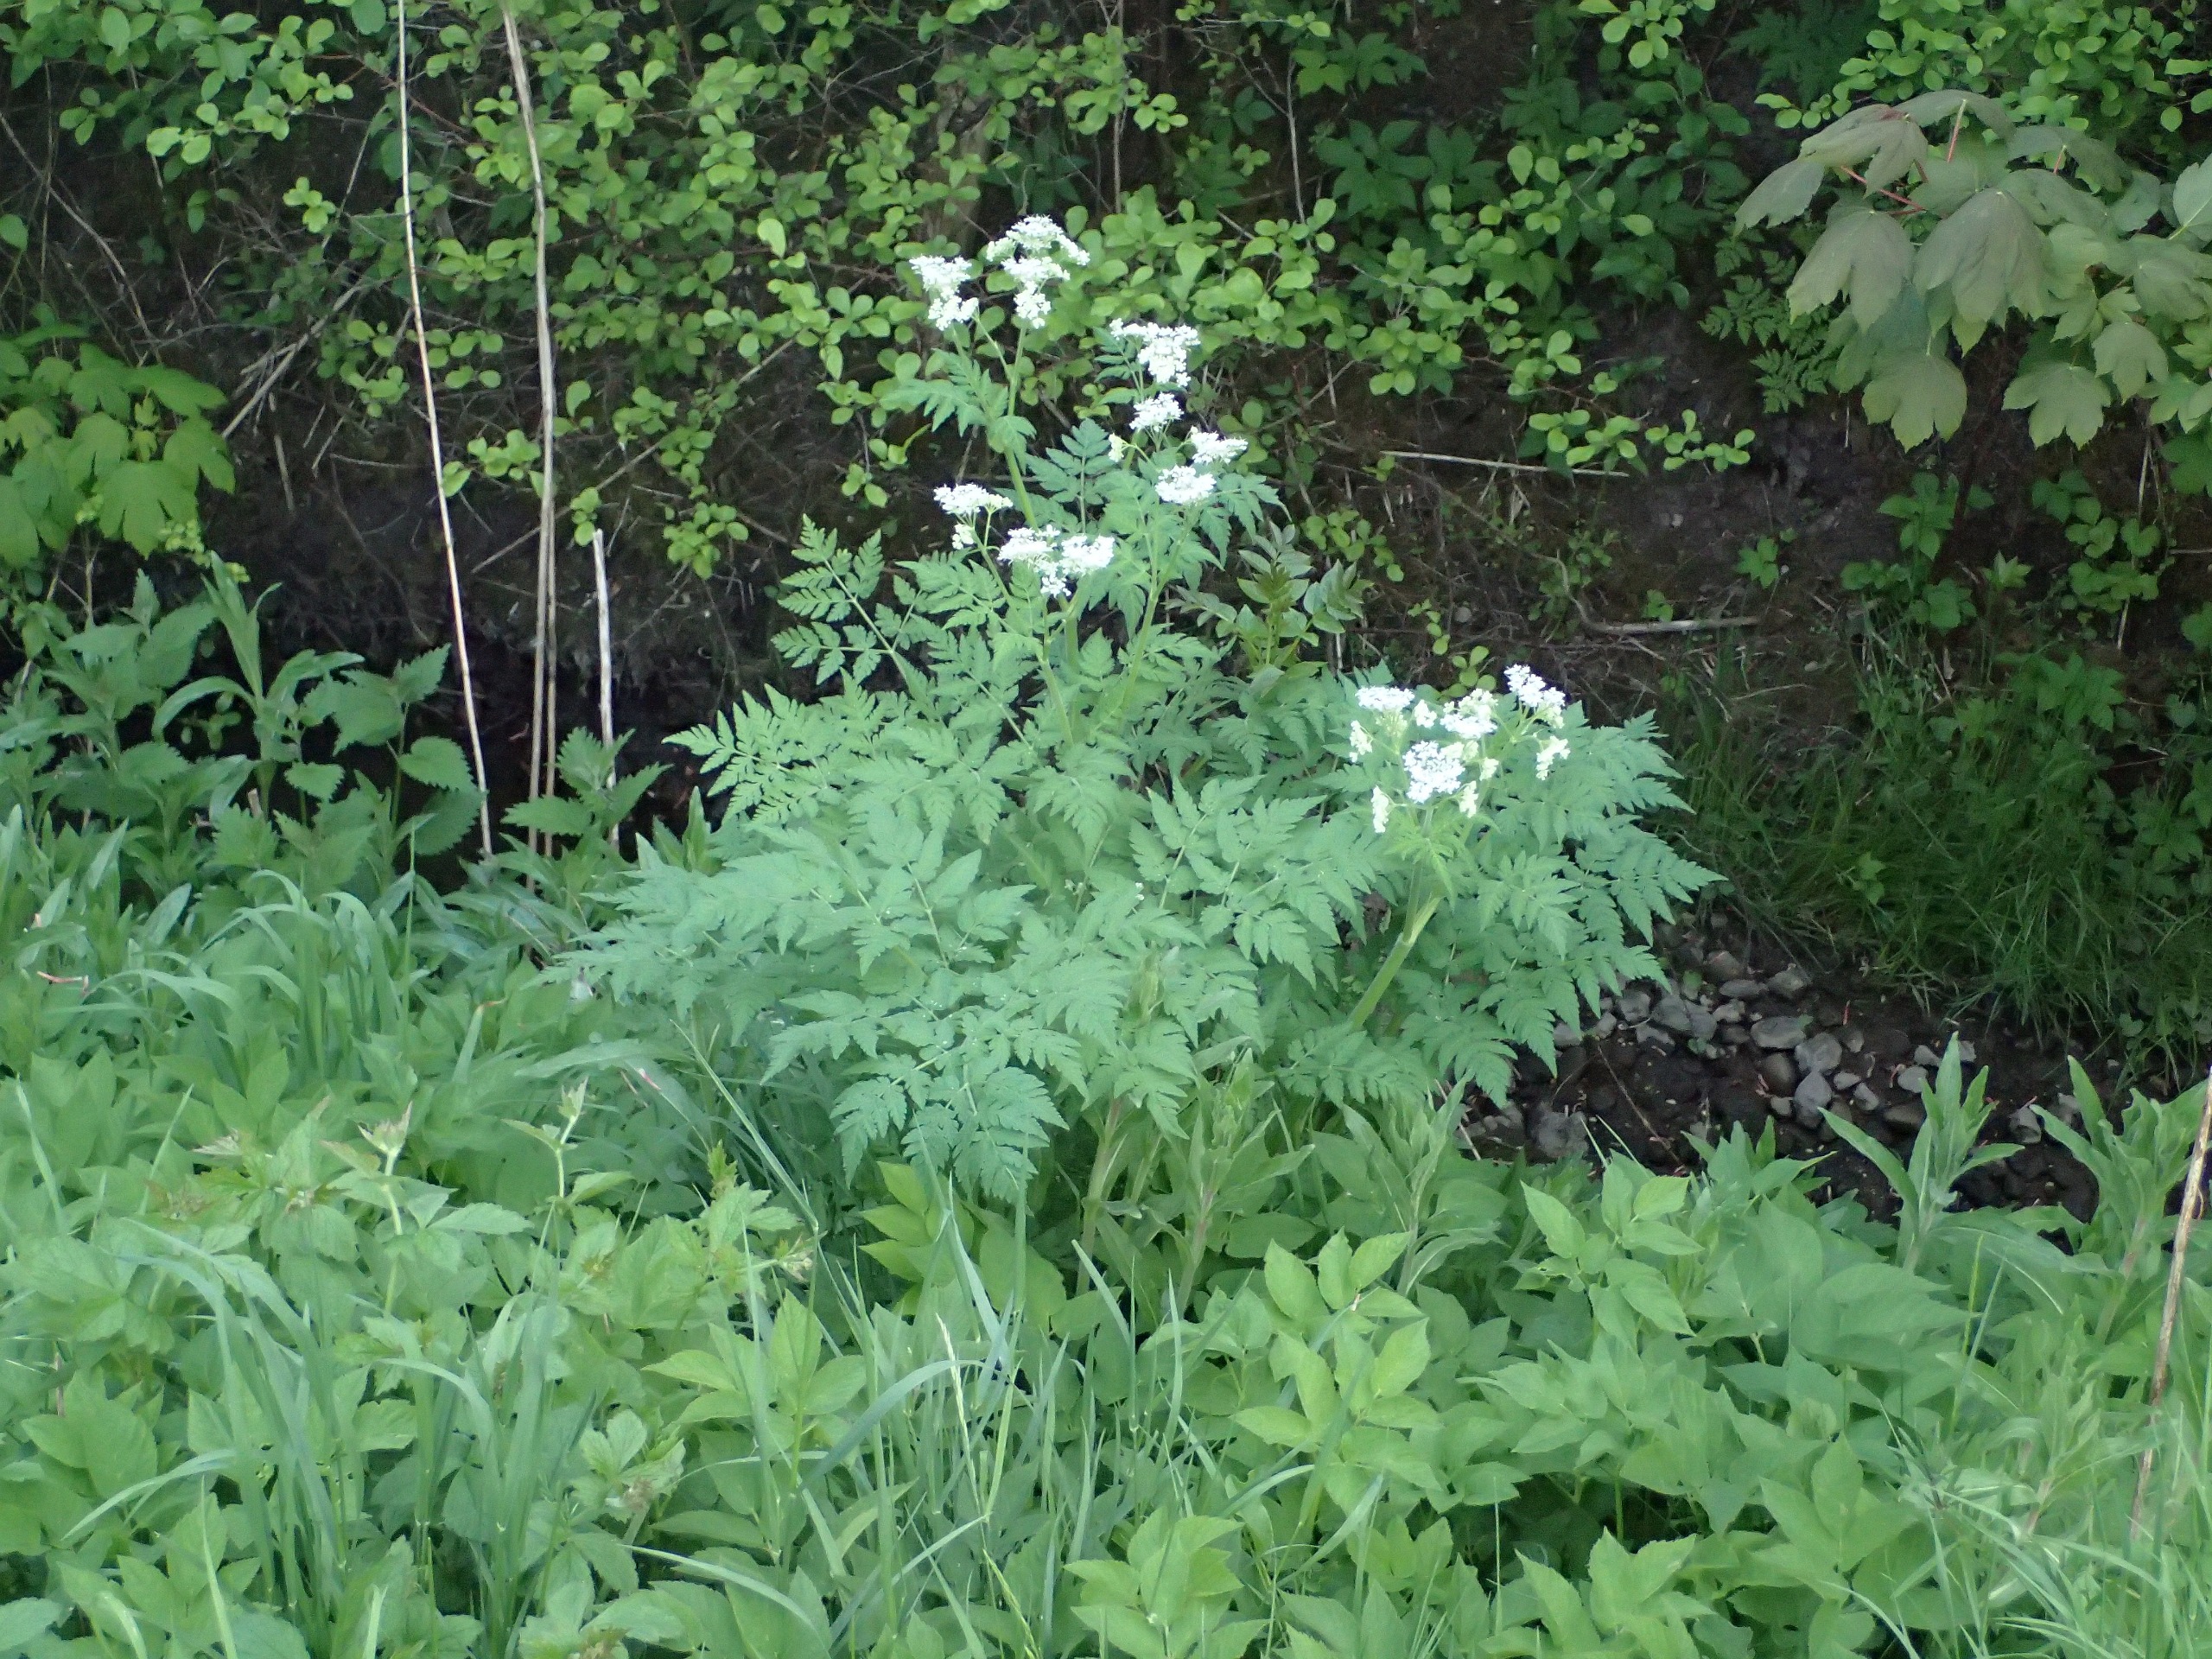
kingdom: Plantae
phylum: Tracheophyta
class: Magnoliopsida
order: Apiales
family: Apiaceae
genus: Myrrhis
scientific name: Myrrhis odorata
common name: Sødskærm
